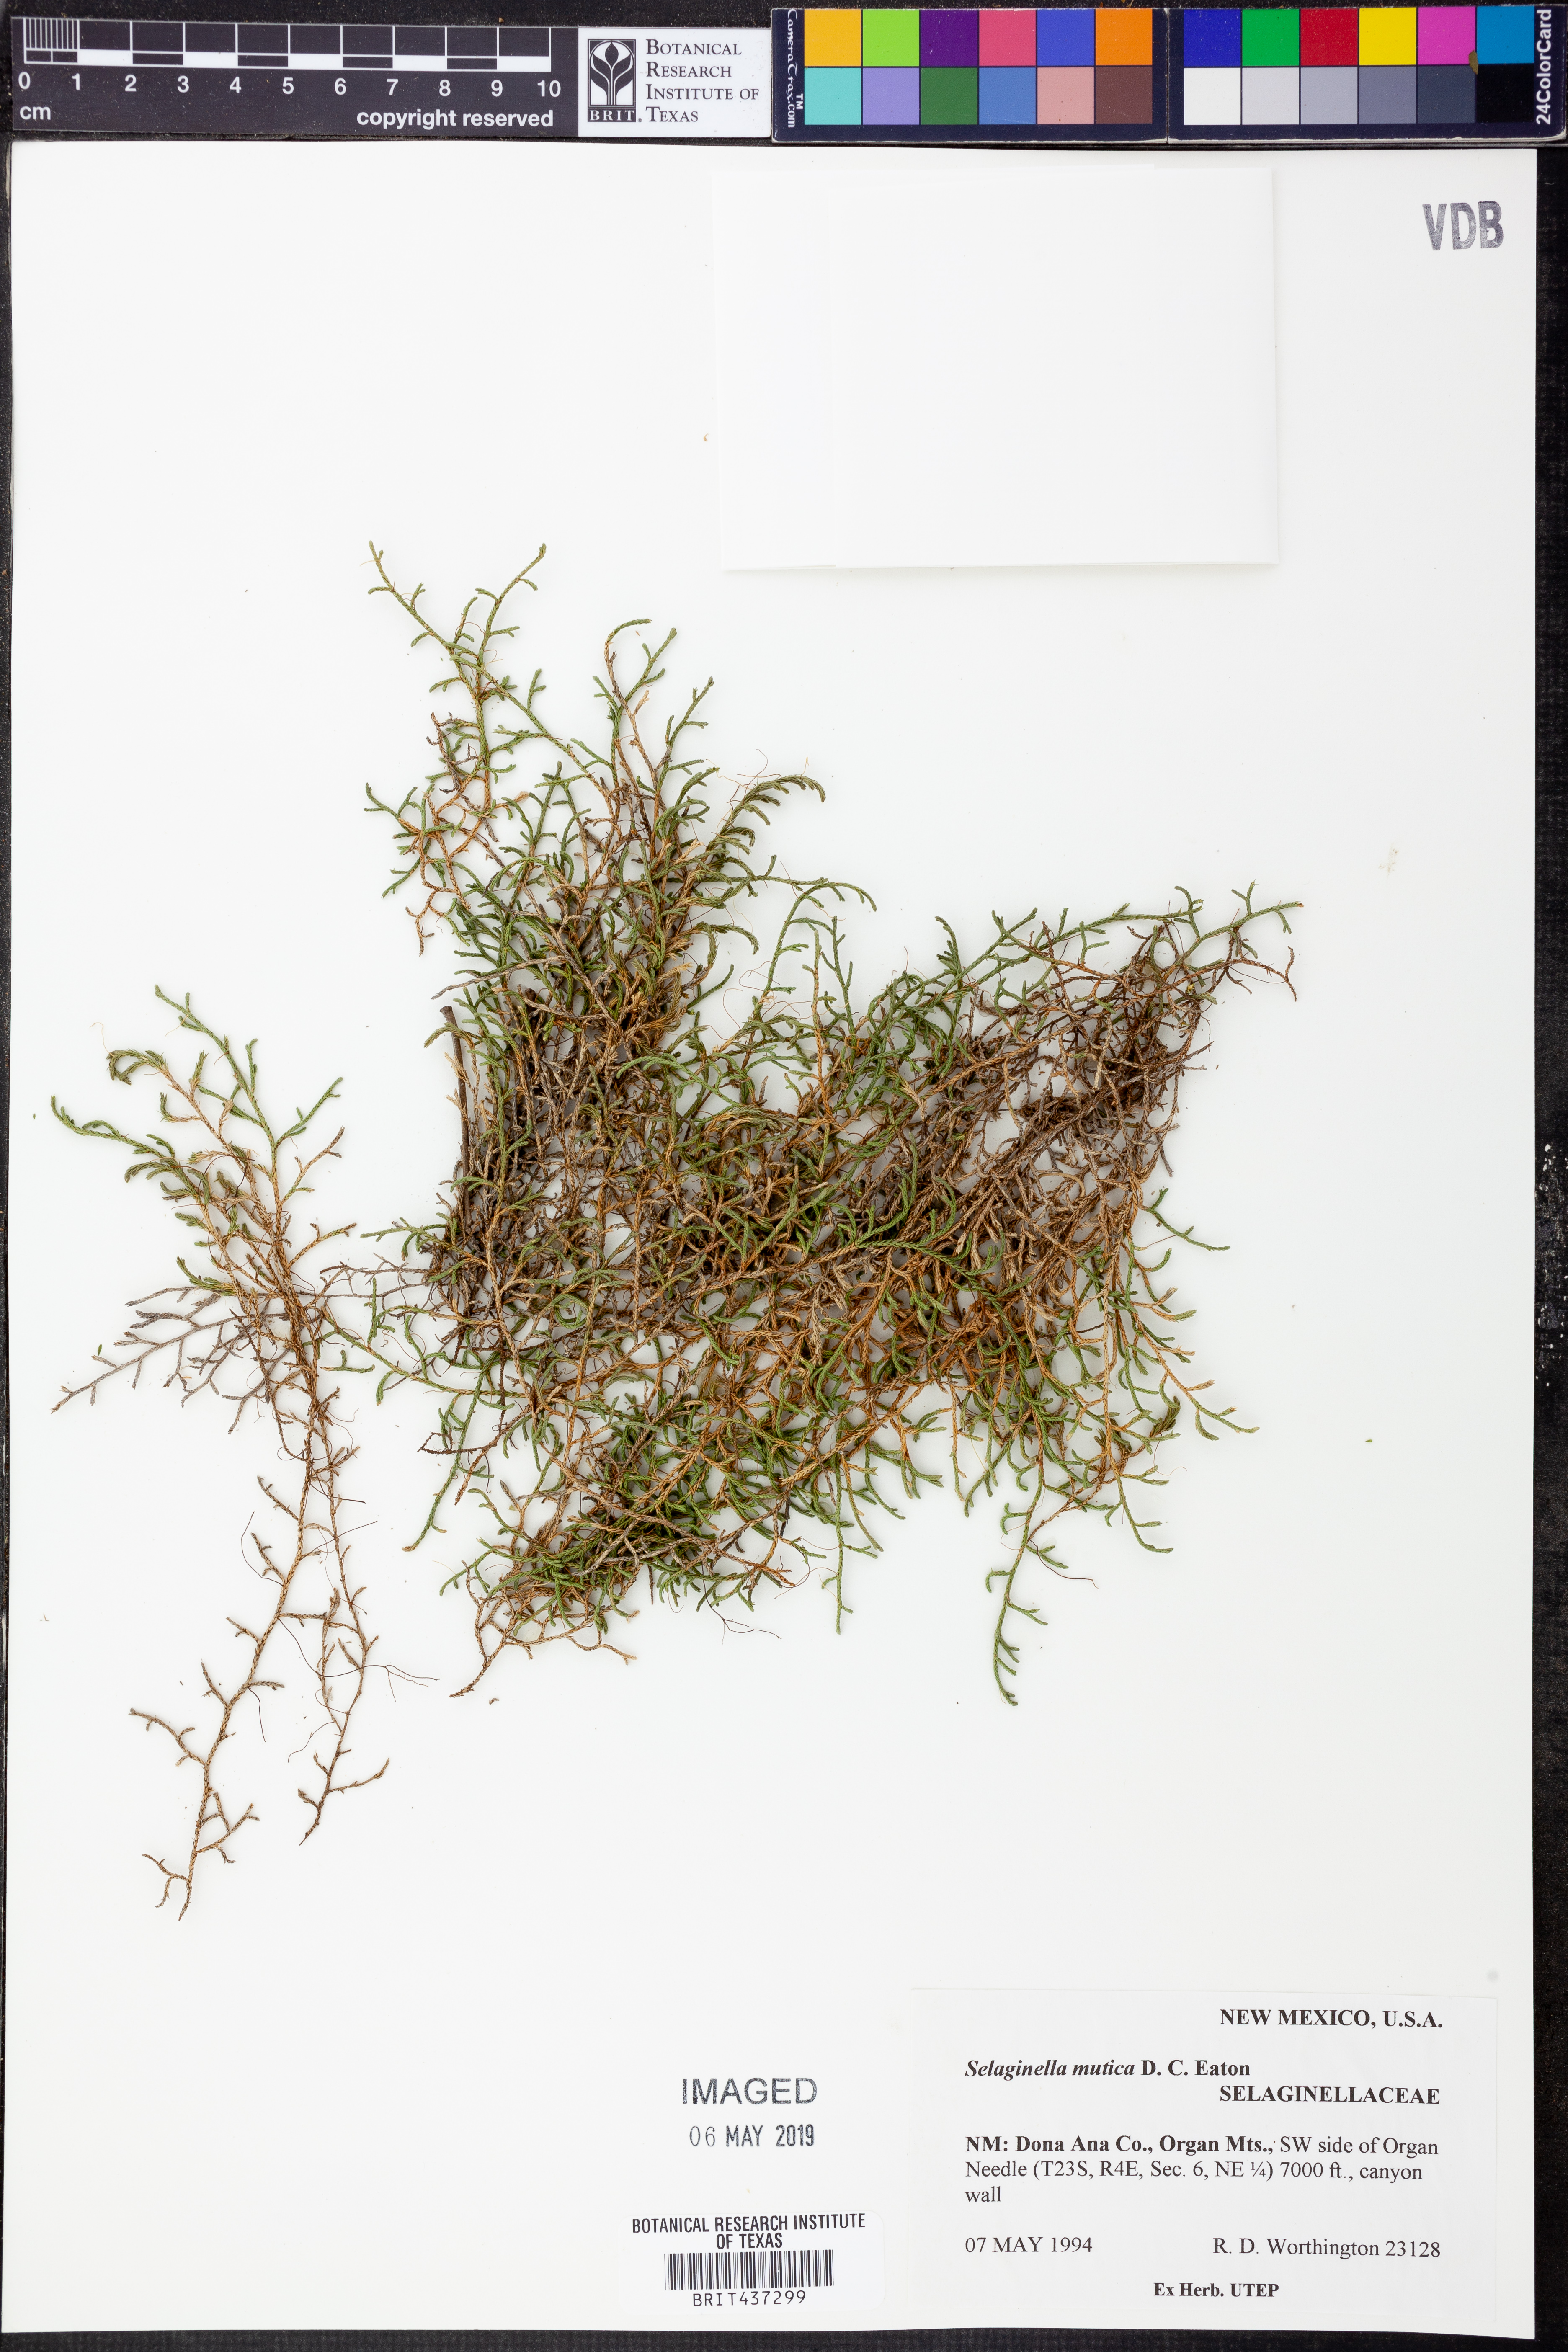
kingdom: Plantae
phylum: Tracheophyta
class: Lycopodiopsida
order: Selaginellales
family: Selaginellaceae
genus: Selaginella
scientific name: Selaginella mutica
